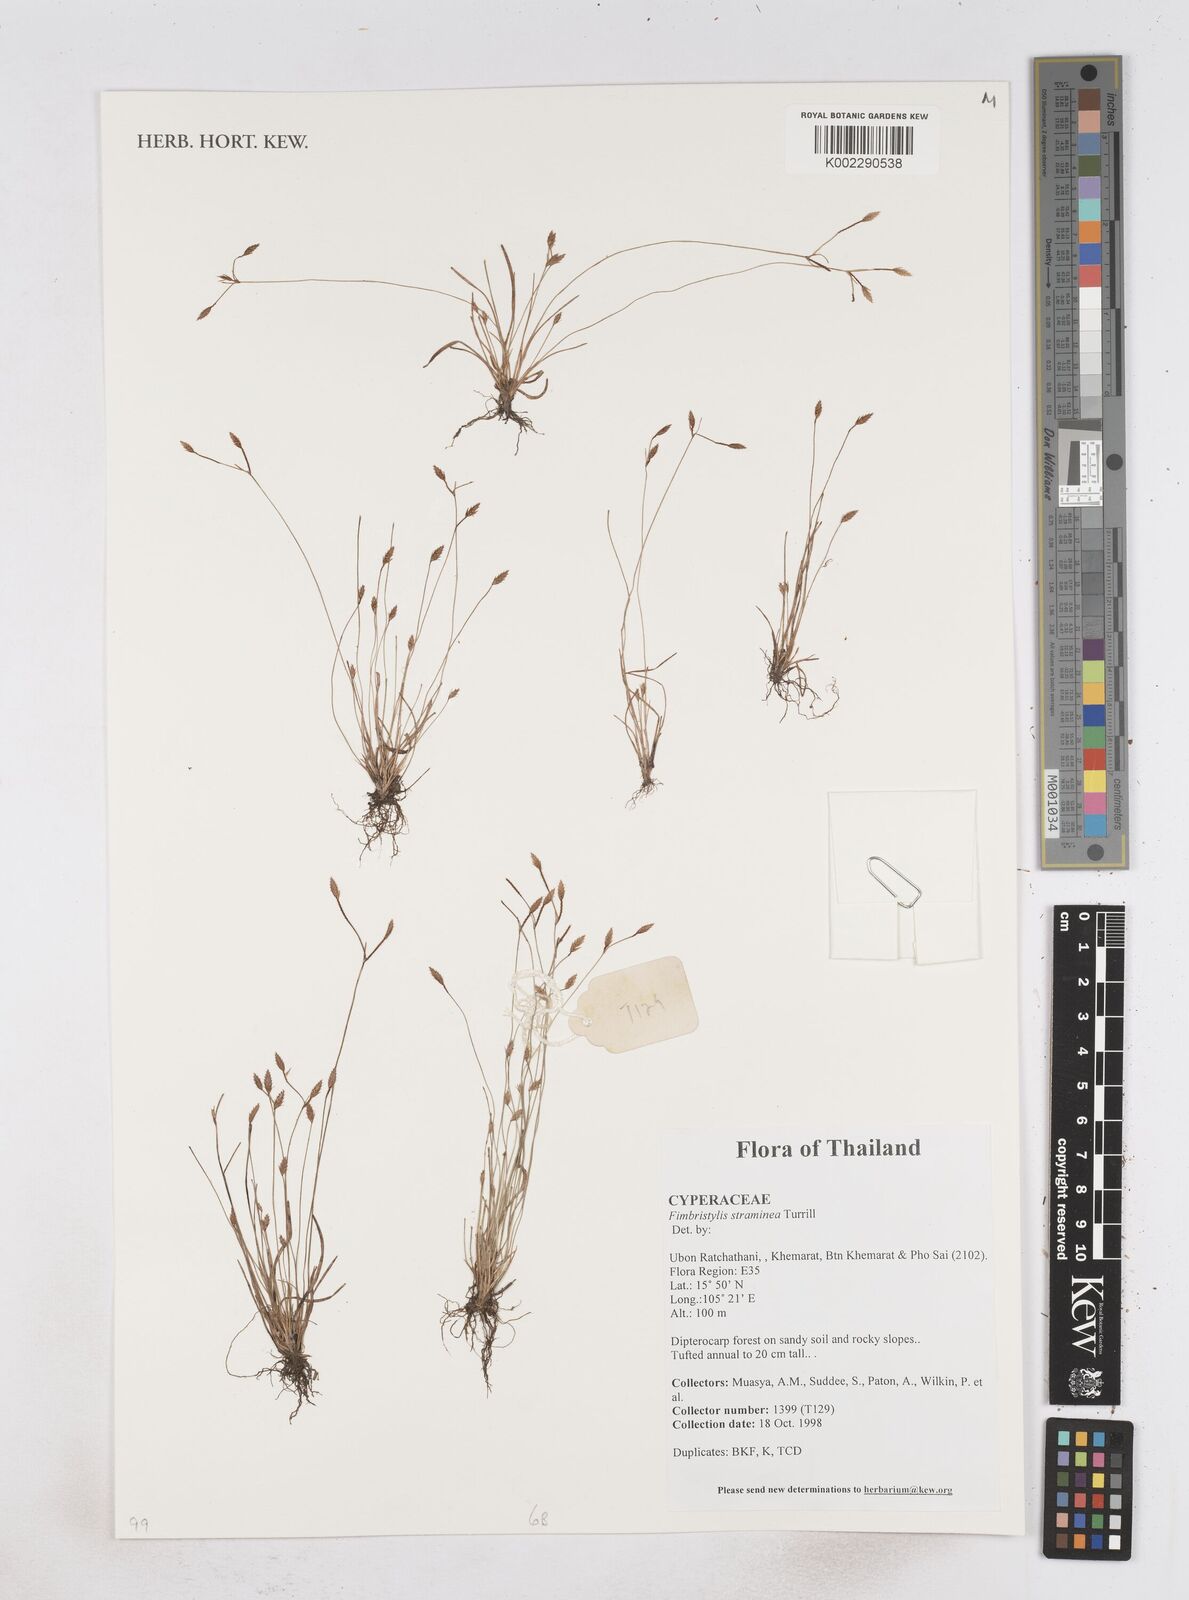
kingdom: Plantae
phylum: Tracheophyta
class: Liliopsida
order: Poales
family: Cyperaceae
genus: Fimbristylis
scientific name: Fimbristylis straminea
